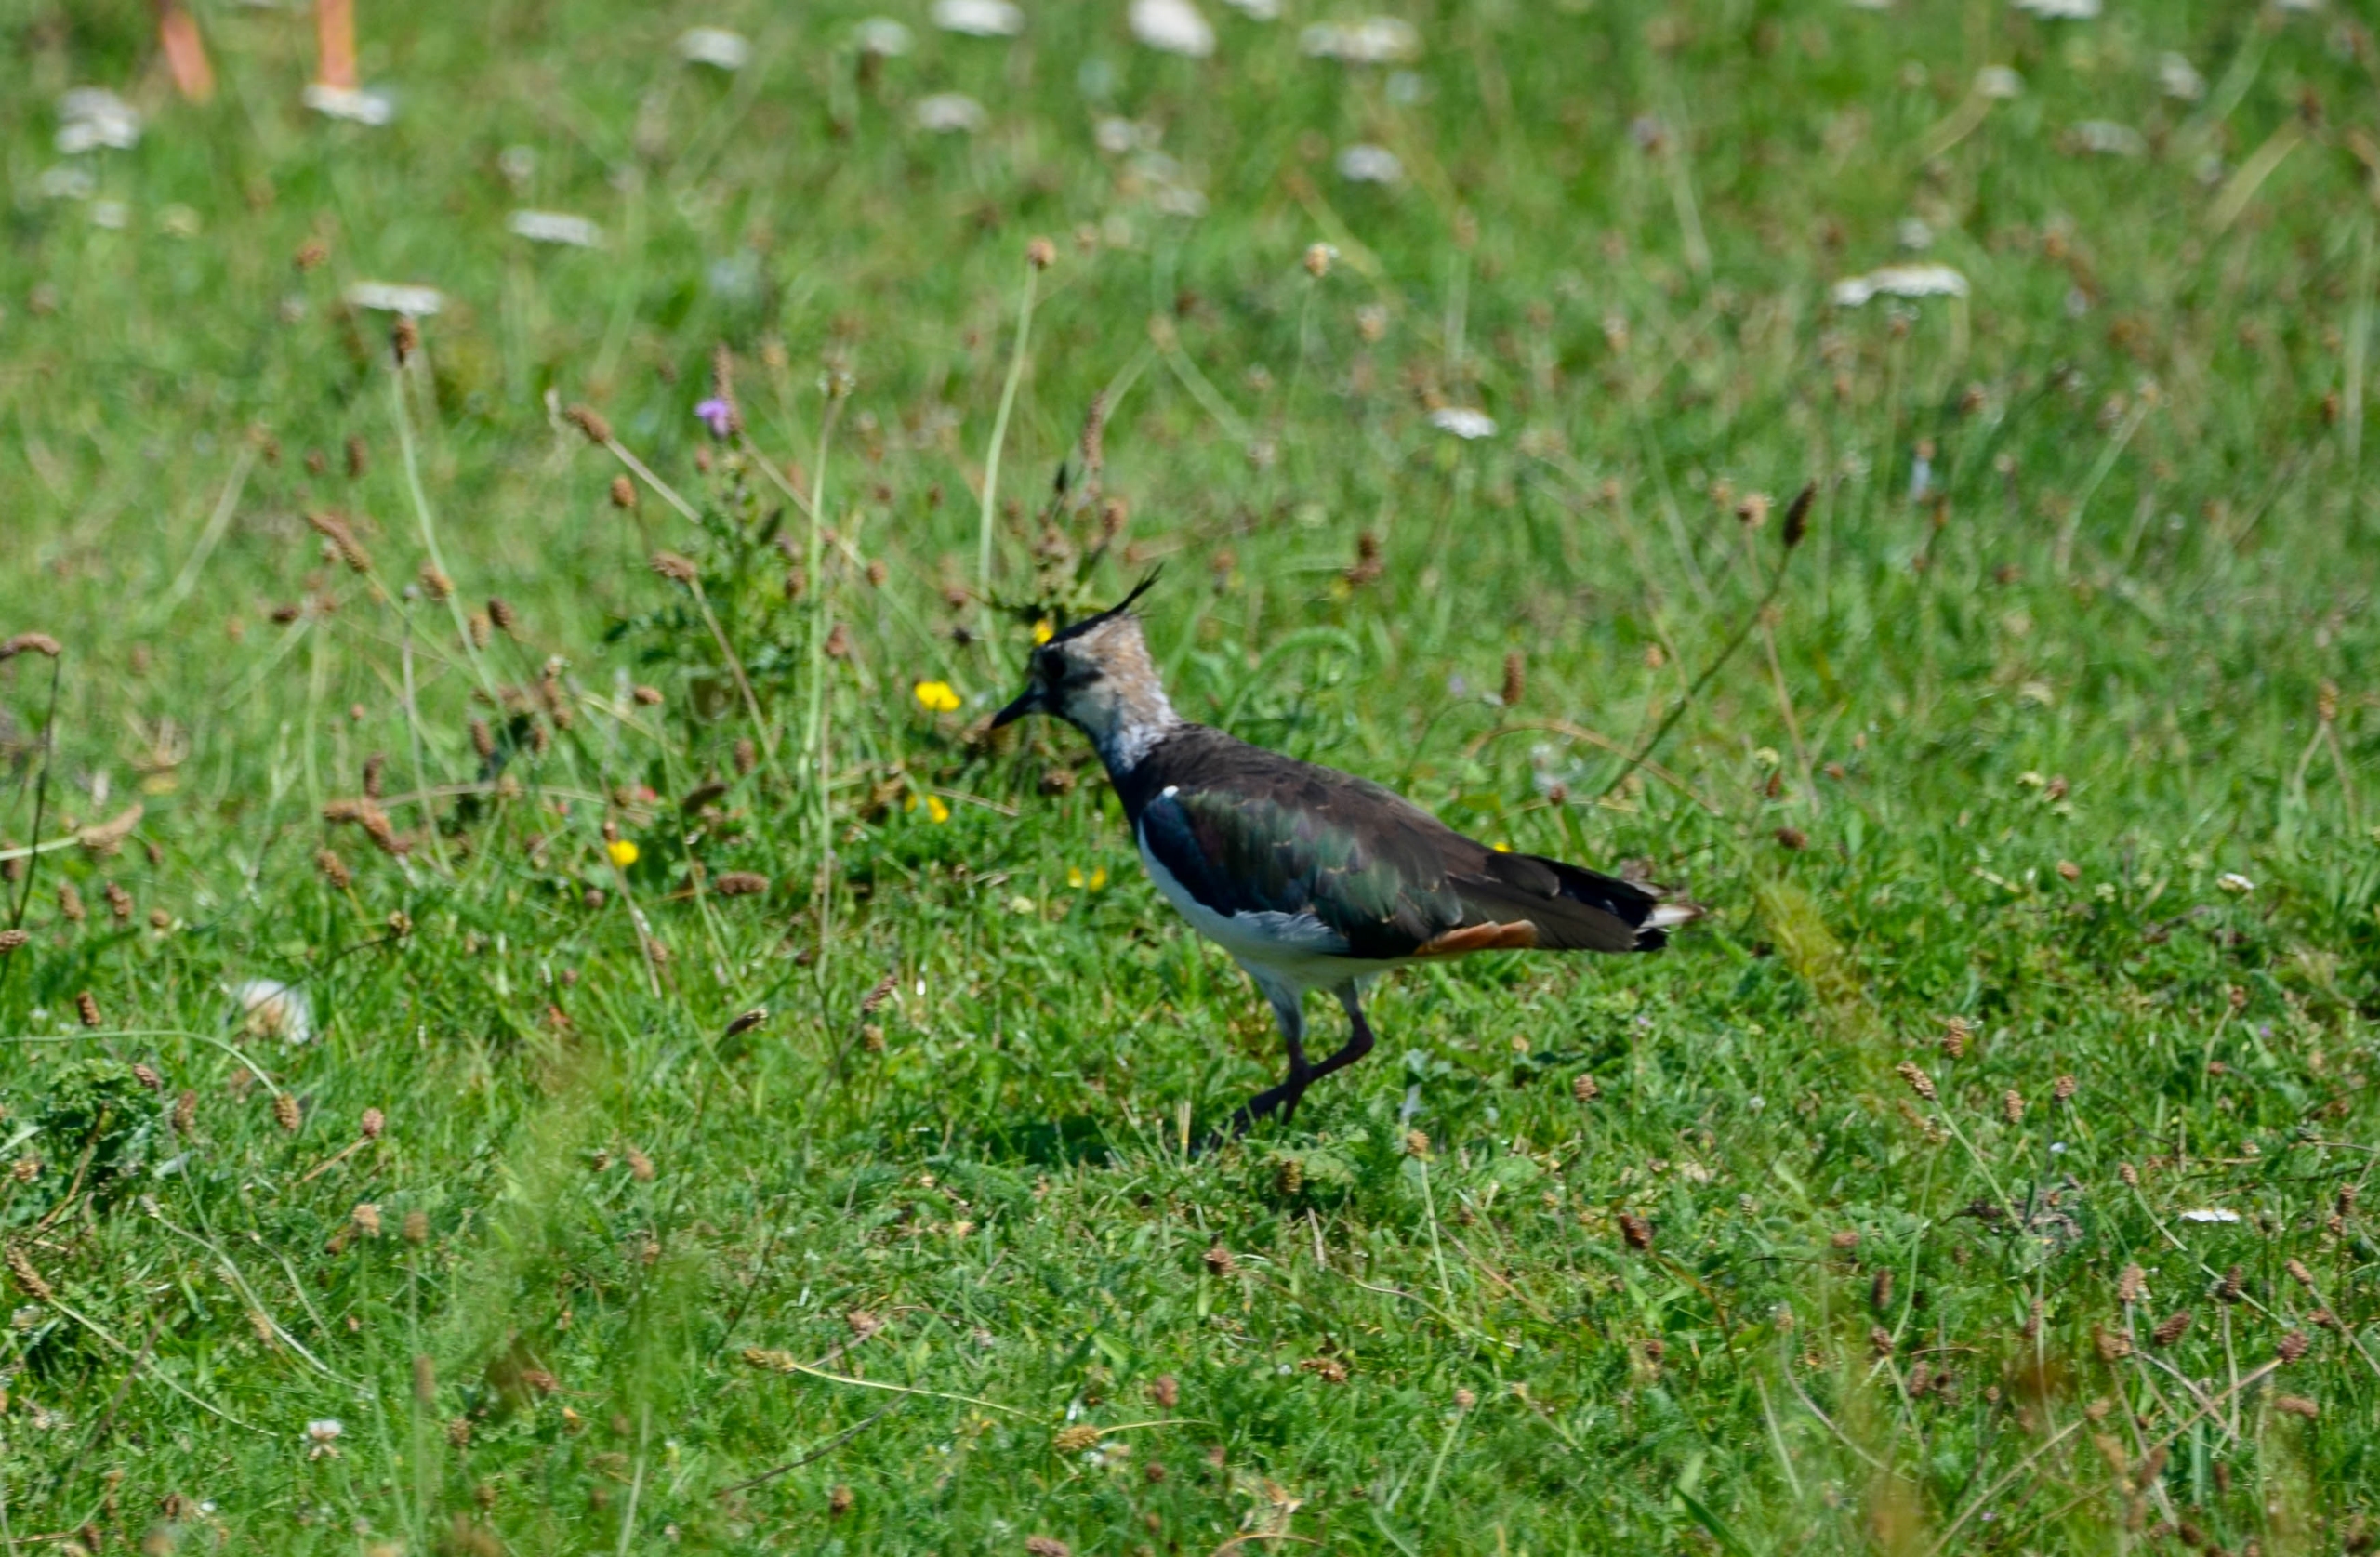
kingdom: Animalia
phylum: Chordata
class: Aves
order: Charadriiformes
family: Charadriidae
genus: Vanellus
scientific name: Vanellus vanellus
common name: Vibe
